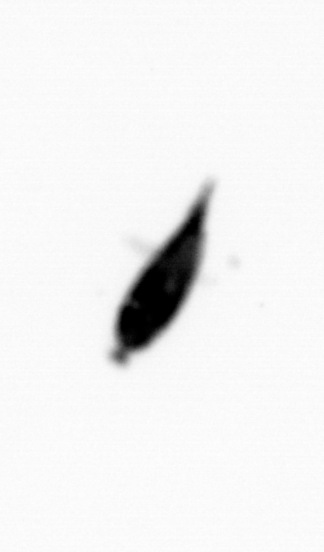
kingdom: Animalia
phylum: Arthropoda
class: Maxillopoda
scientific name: Maxillopoda
